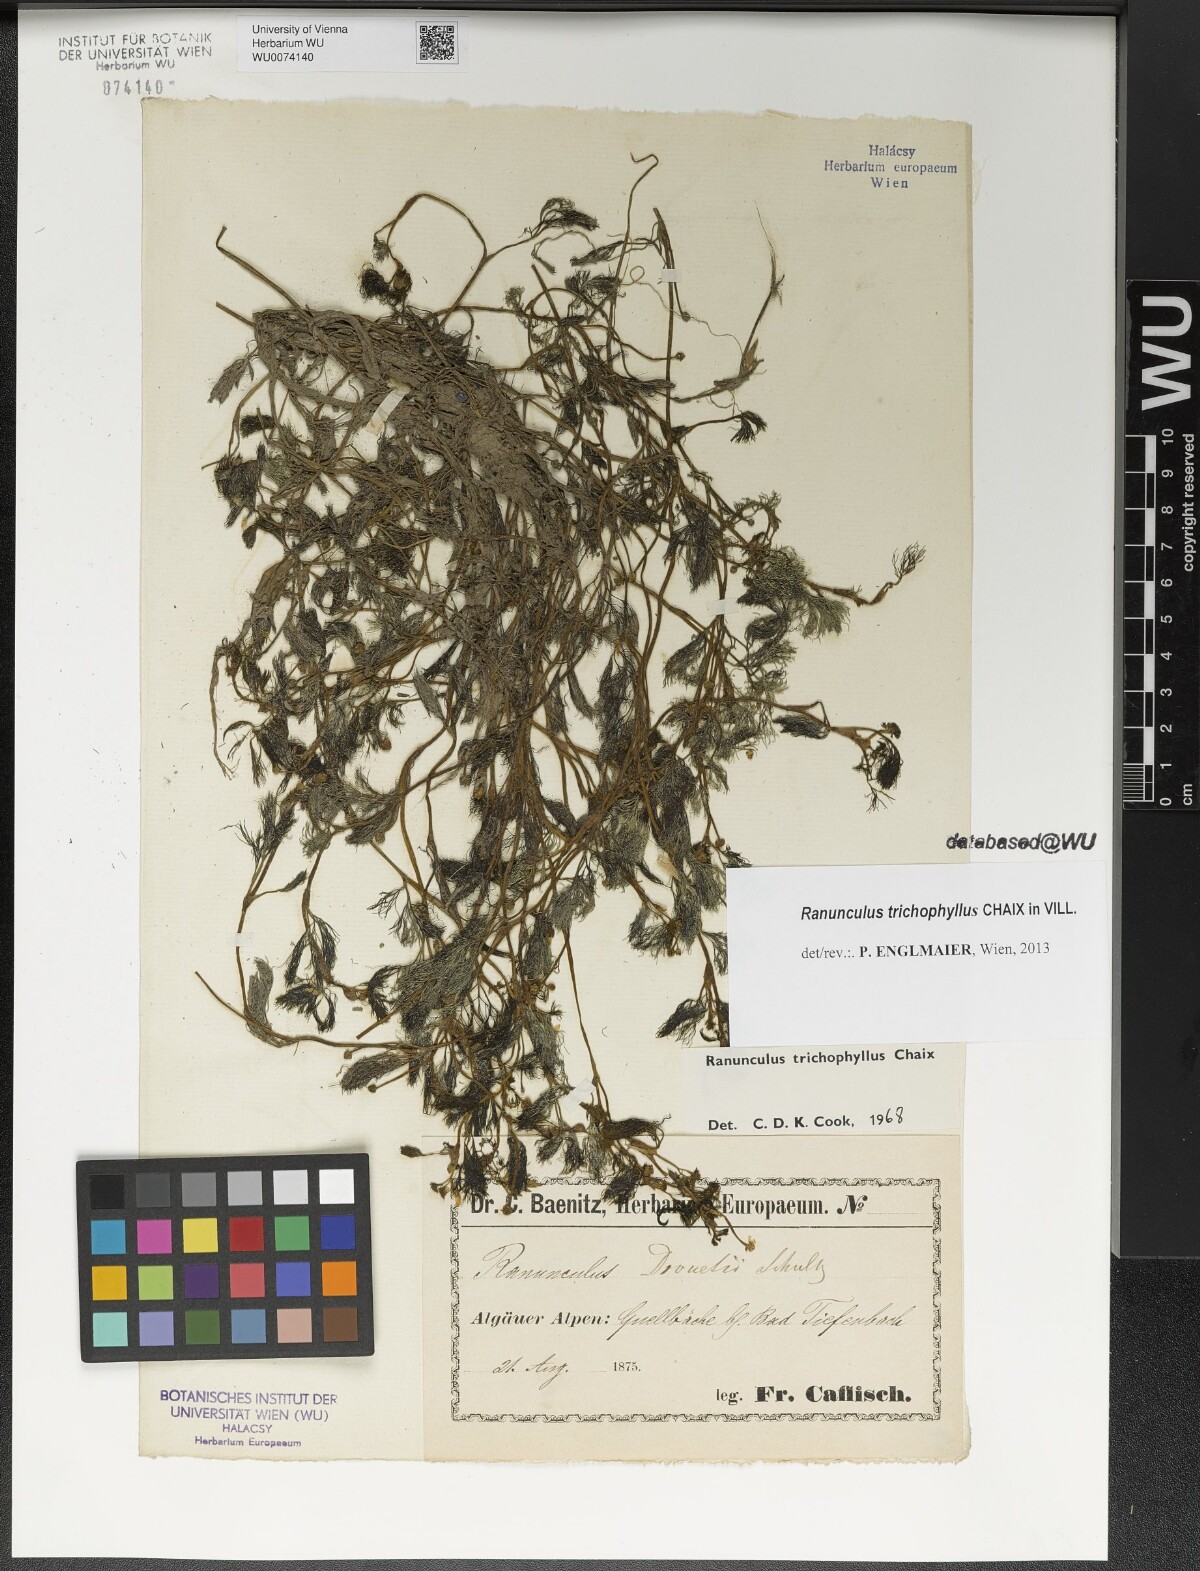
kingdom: Plantae
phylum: Tracheophyta
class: Magnoliopsida
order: Ranunculales
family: Ranunculaceae
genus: Ranunculus
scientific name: Ranunculus trichophyllus
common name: Thread-leaved water-crowfoot
